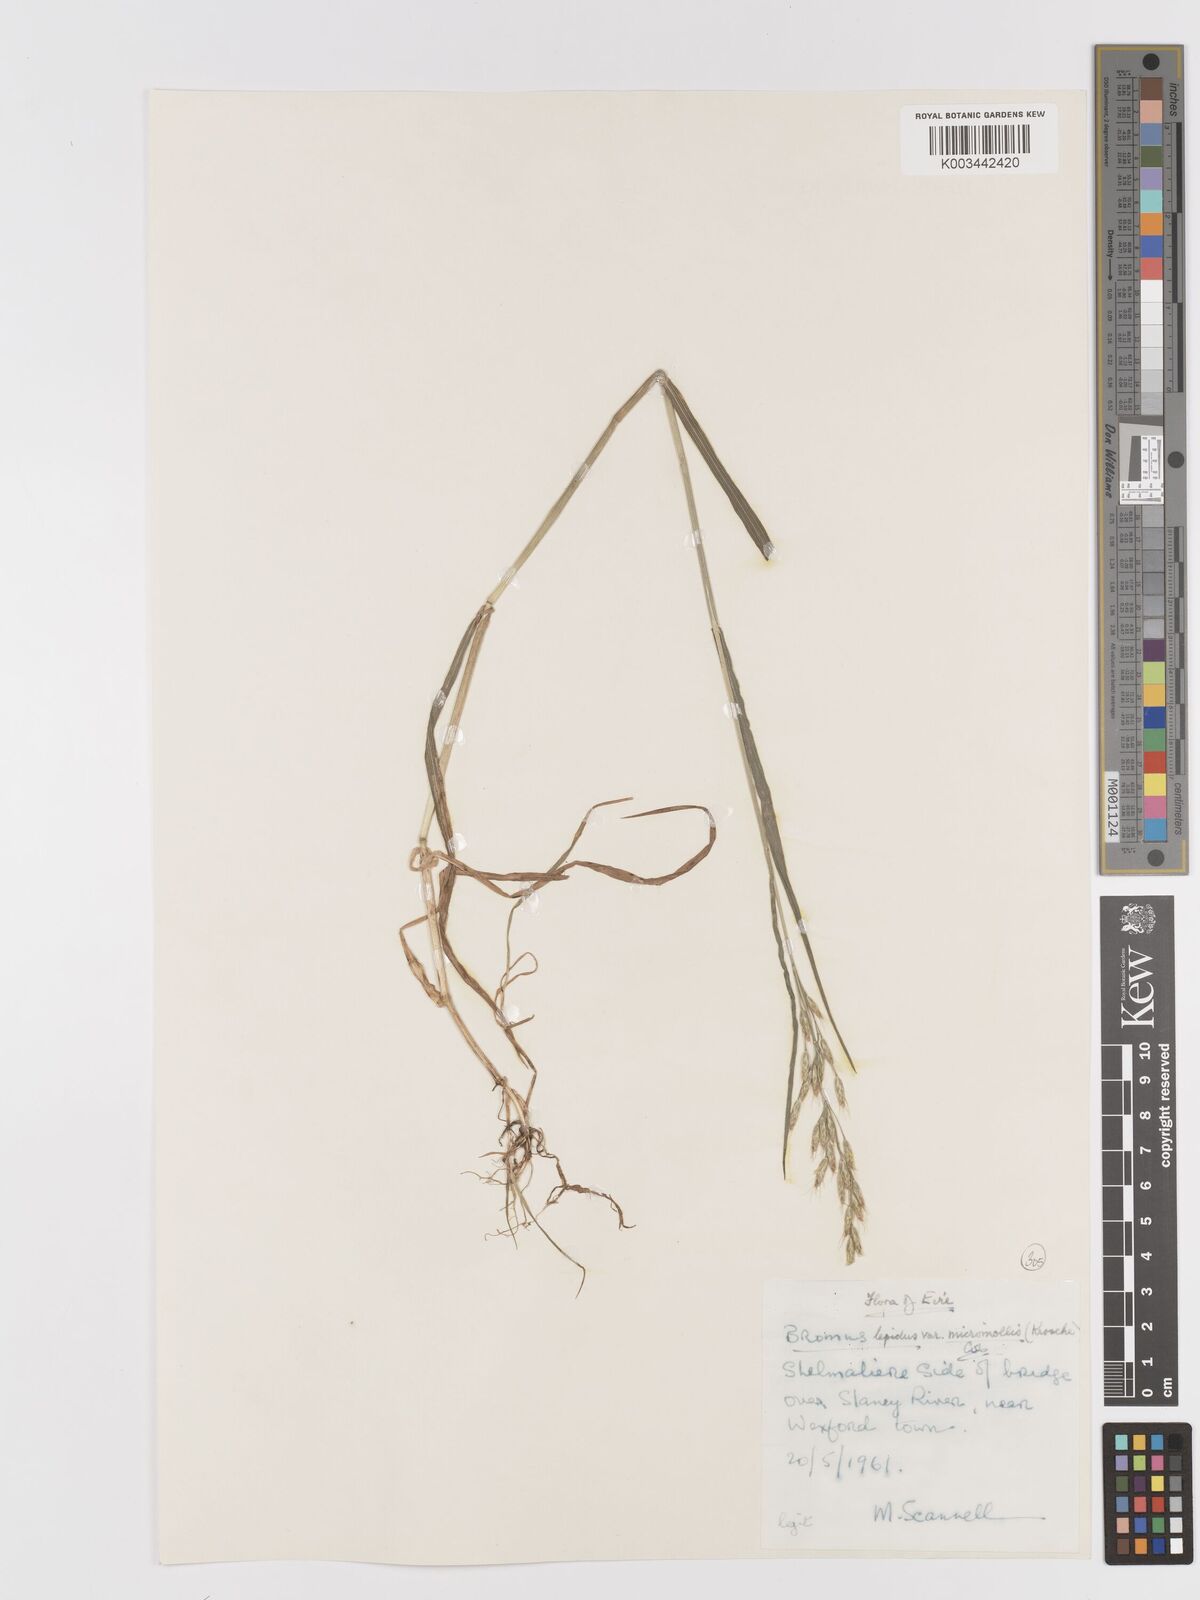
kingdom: Plantae
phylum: Tracheophyta
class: Liliopsida
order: Poales
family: Poaceae
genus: Bromus
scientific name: Bromus lepidus
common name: Slender soft-brome
